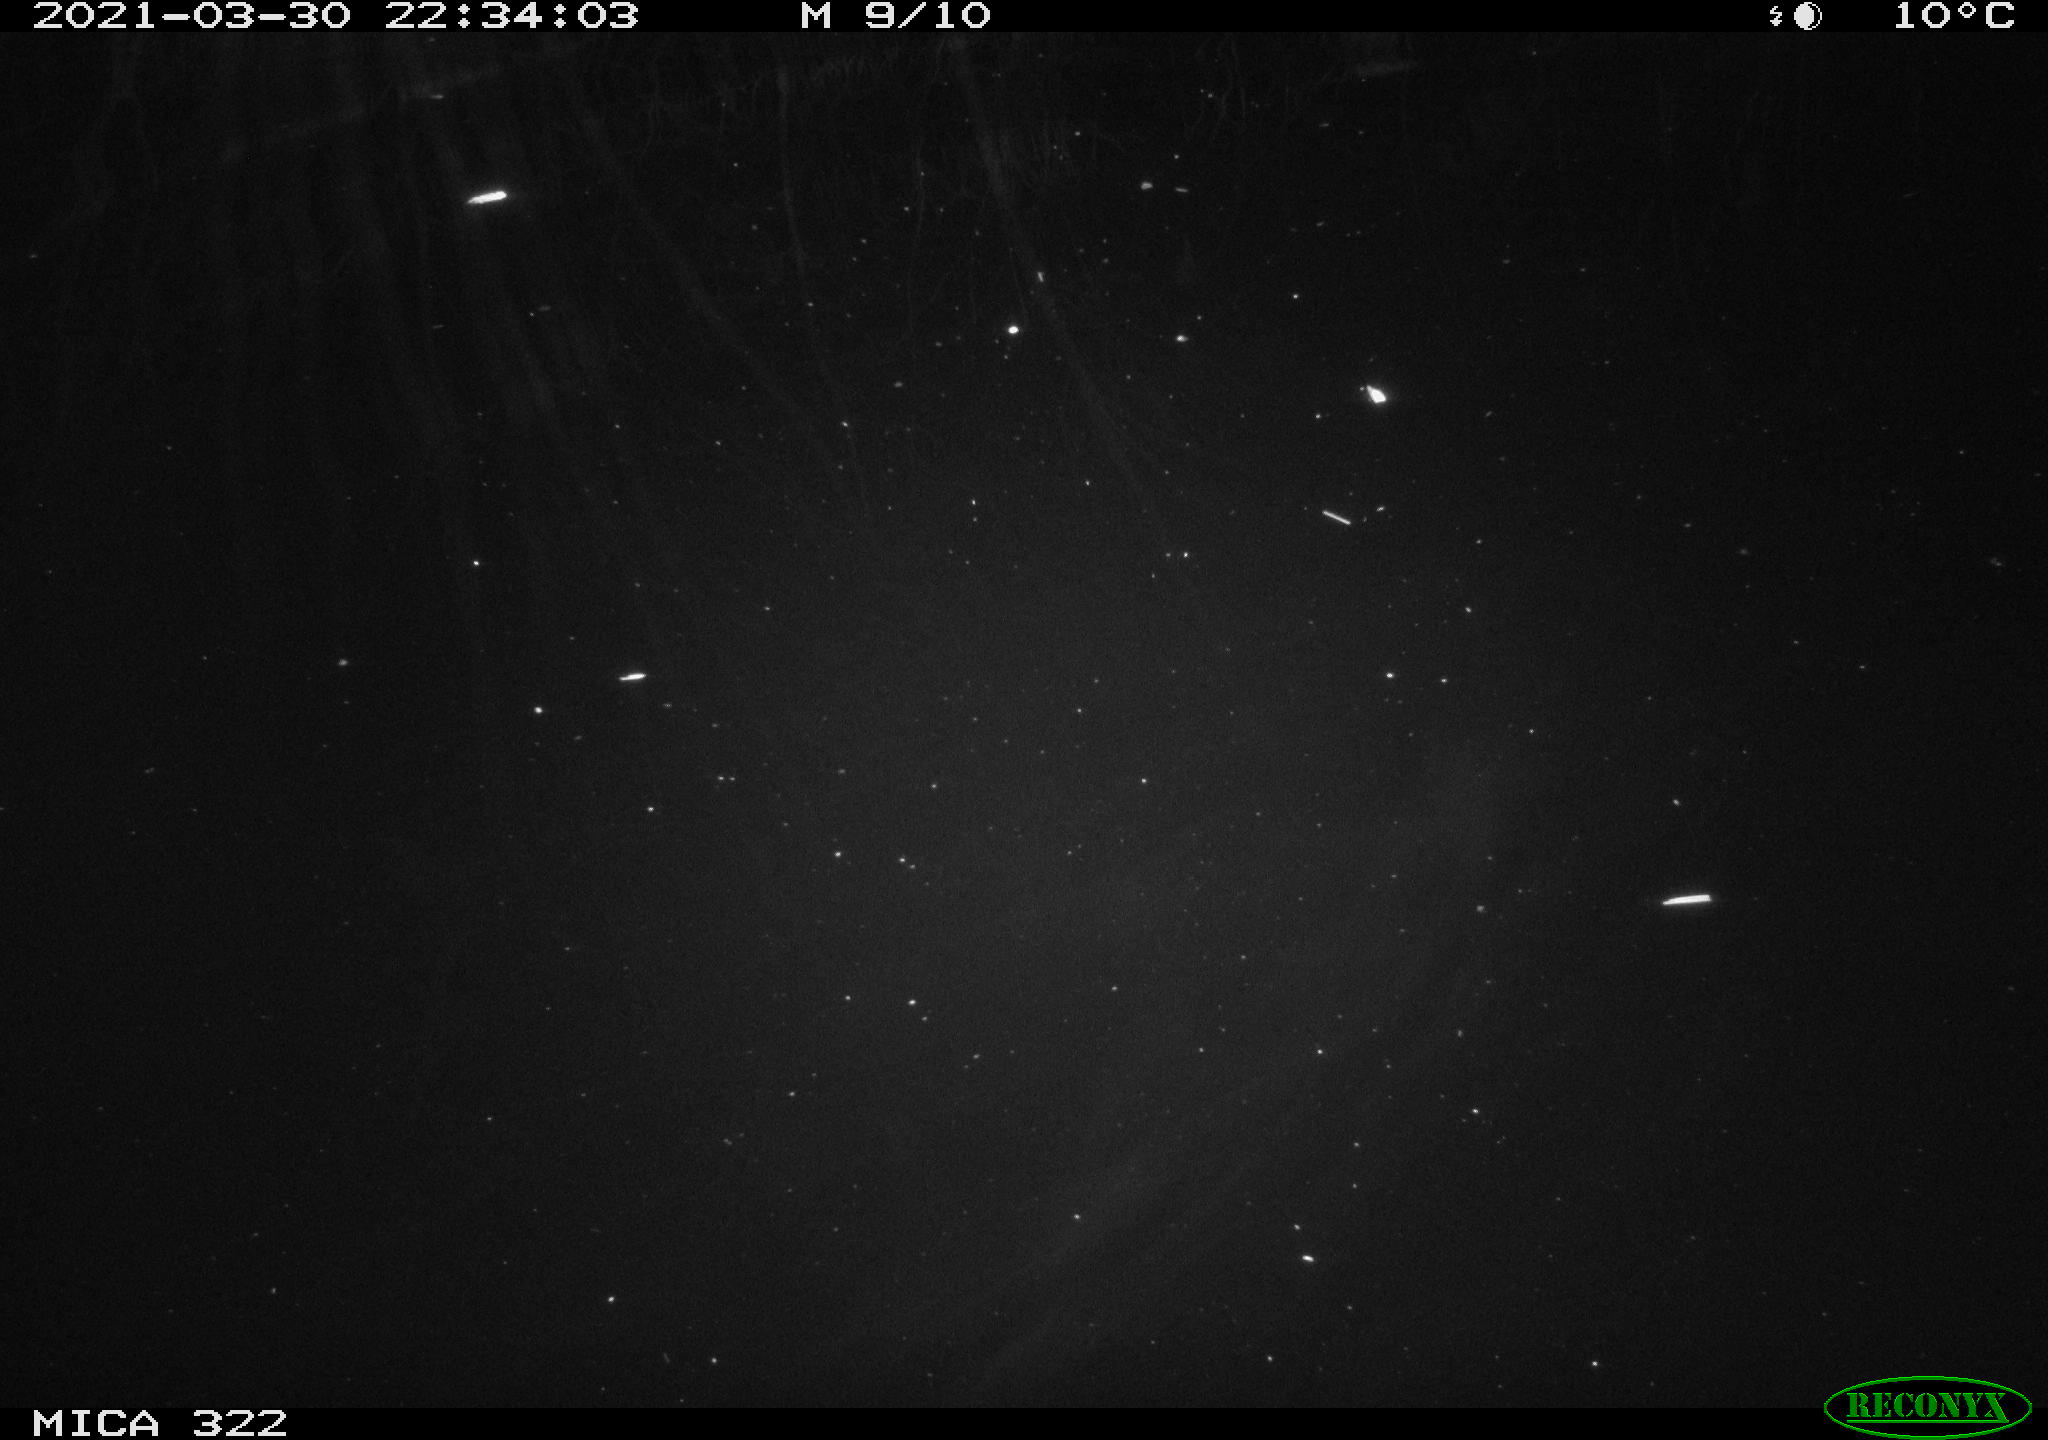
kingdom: Animalia
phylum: Chordata
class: Aves
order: Anseriformes
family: Anatidae
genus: Anas
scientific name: Anas platyrhynchos
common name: Mallard
